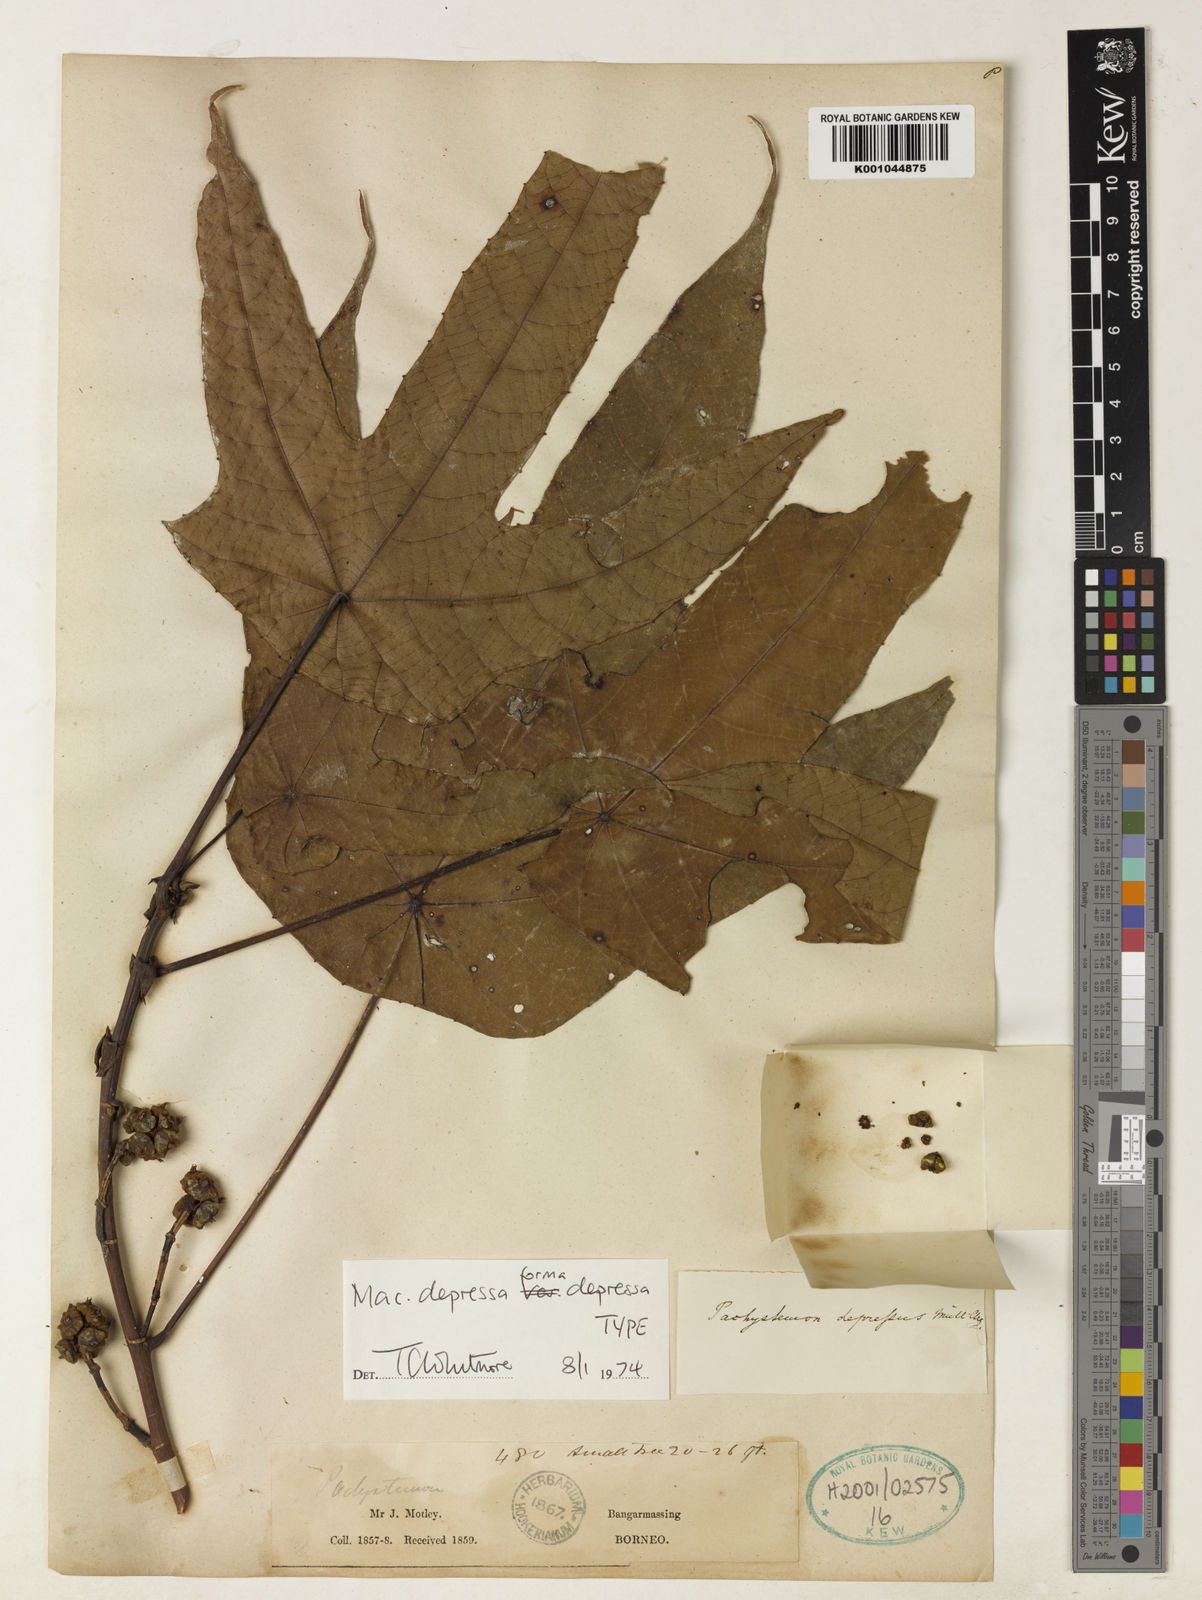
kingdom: Plantae
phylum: Tracheophyta
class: Magnoliopsida
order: Malpighiales
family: Euphorbiaceae
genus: Macaranga
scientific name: Macaranga
